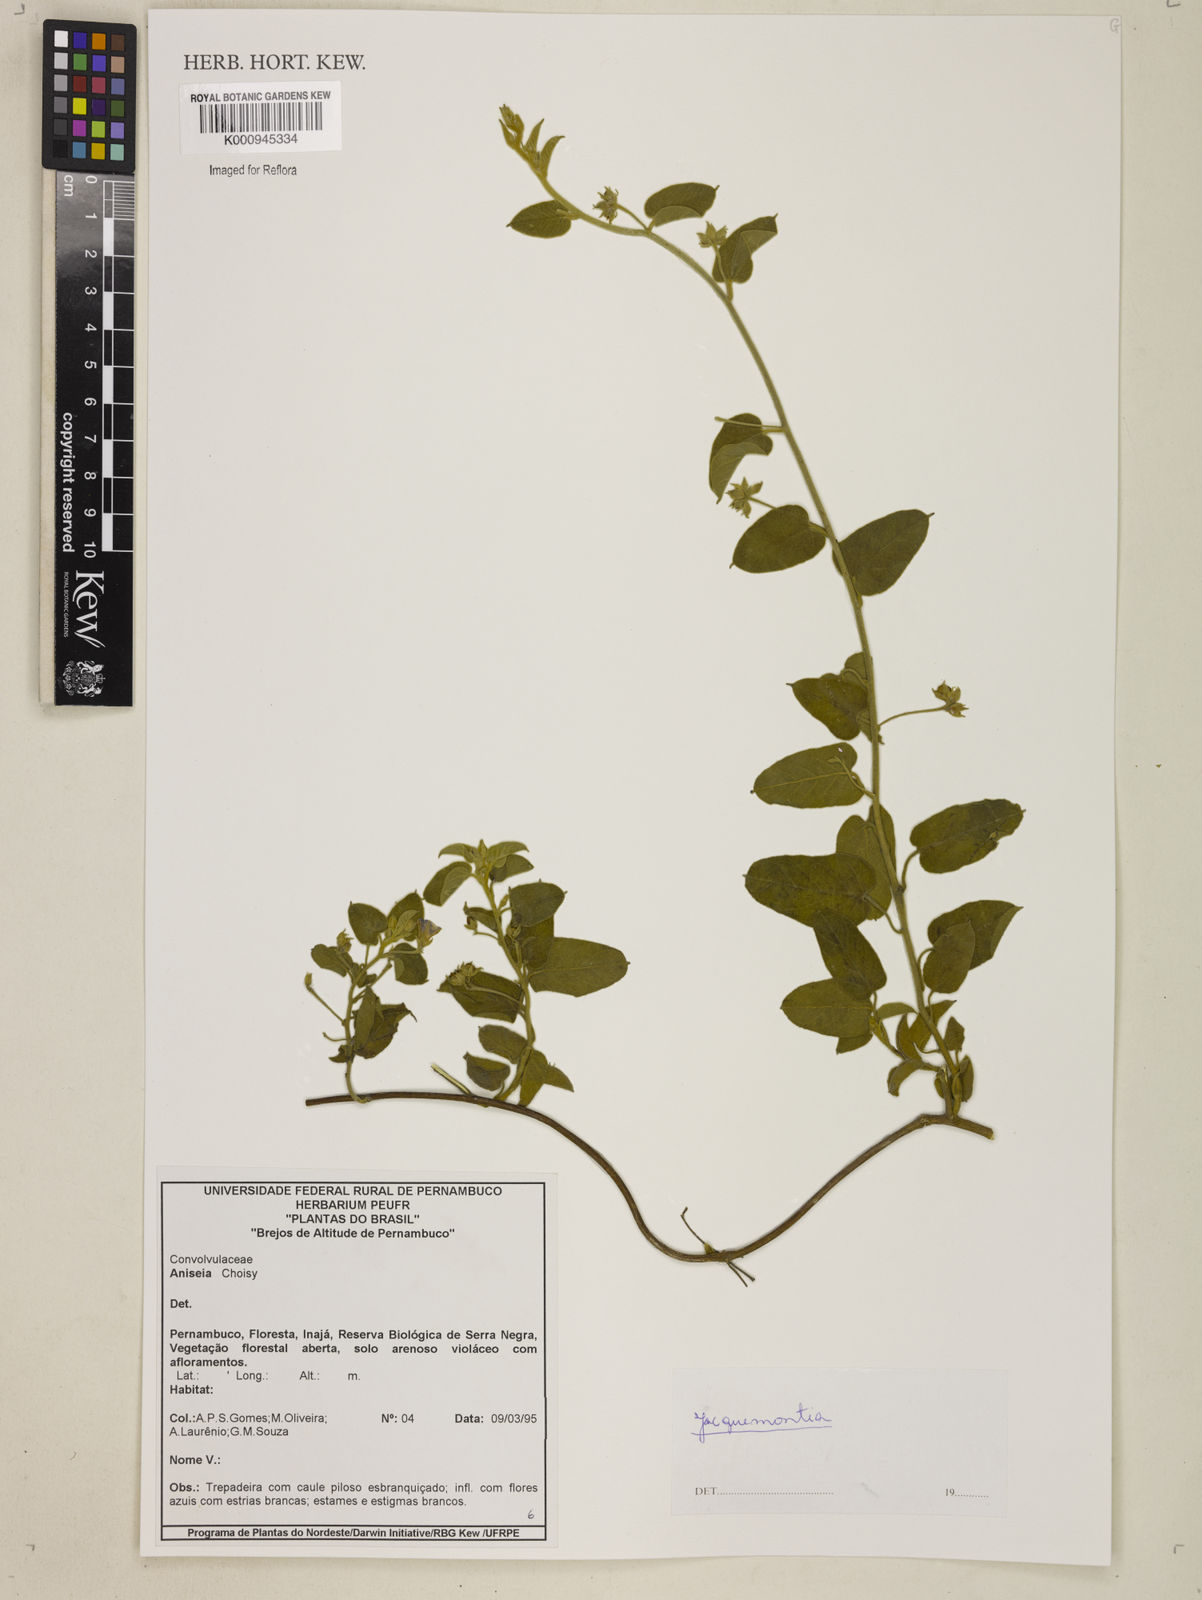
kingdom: Plantae
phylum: Tracheophyta
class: Magnoliopsida
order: Solanales
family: Convolvulaceae
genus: Jacquemontia
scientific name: Jacquemontia
